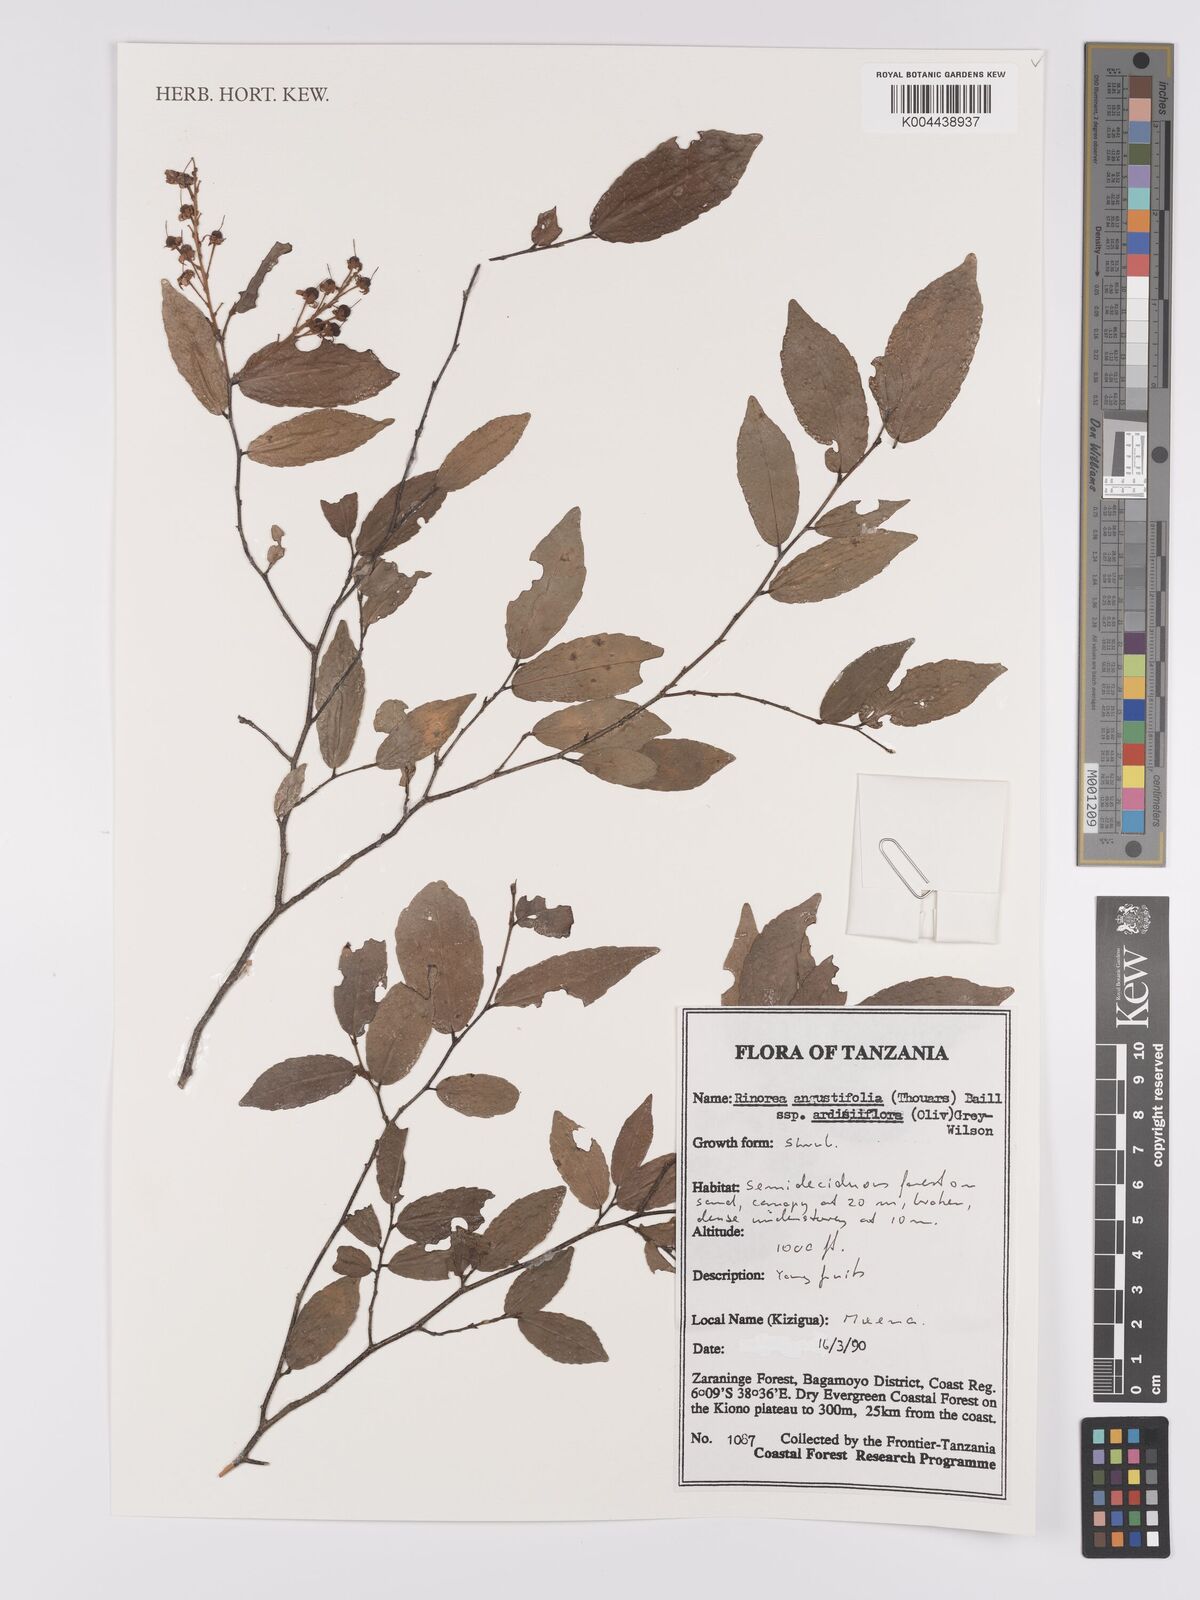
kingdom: Plantae
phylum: Tracheophyta
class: Magnoliopsida
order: Malpighiales
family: Violaceae
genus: Rinorea
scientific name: Rinorea angustifolia
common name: White violet-bush
